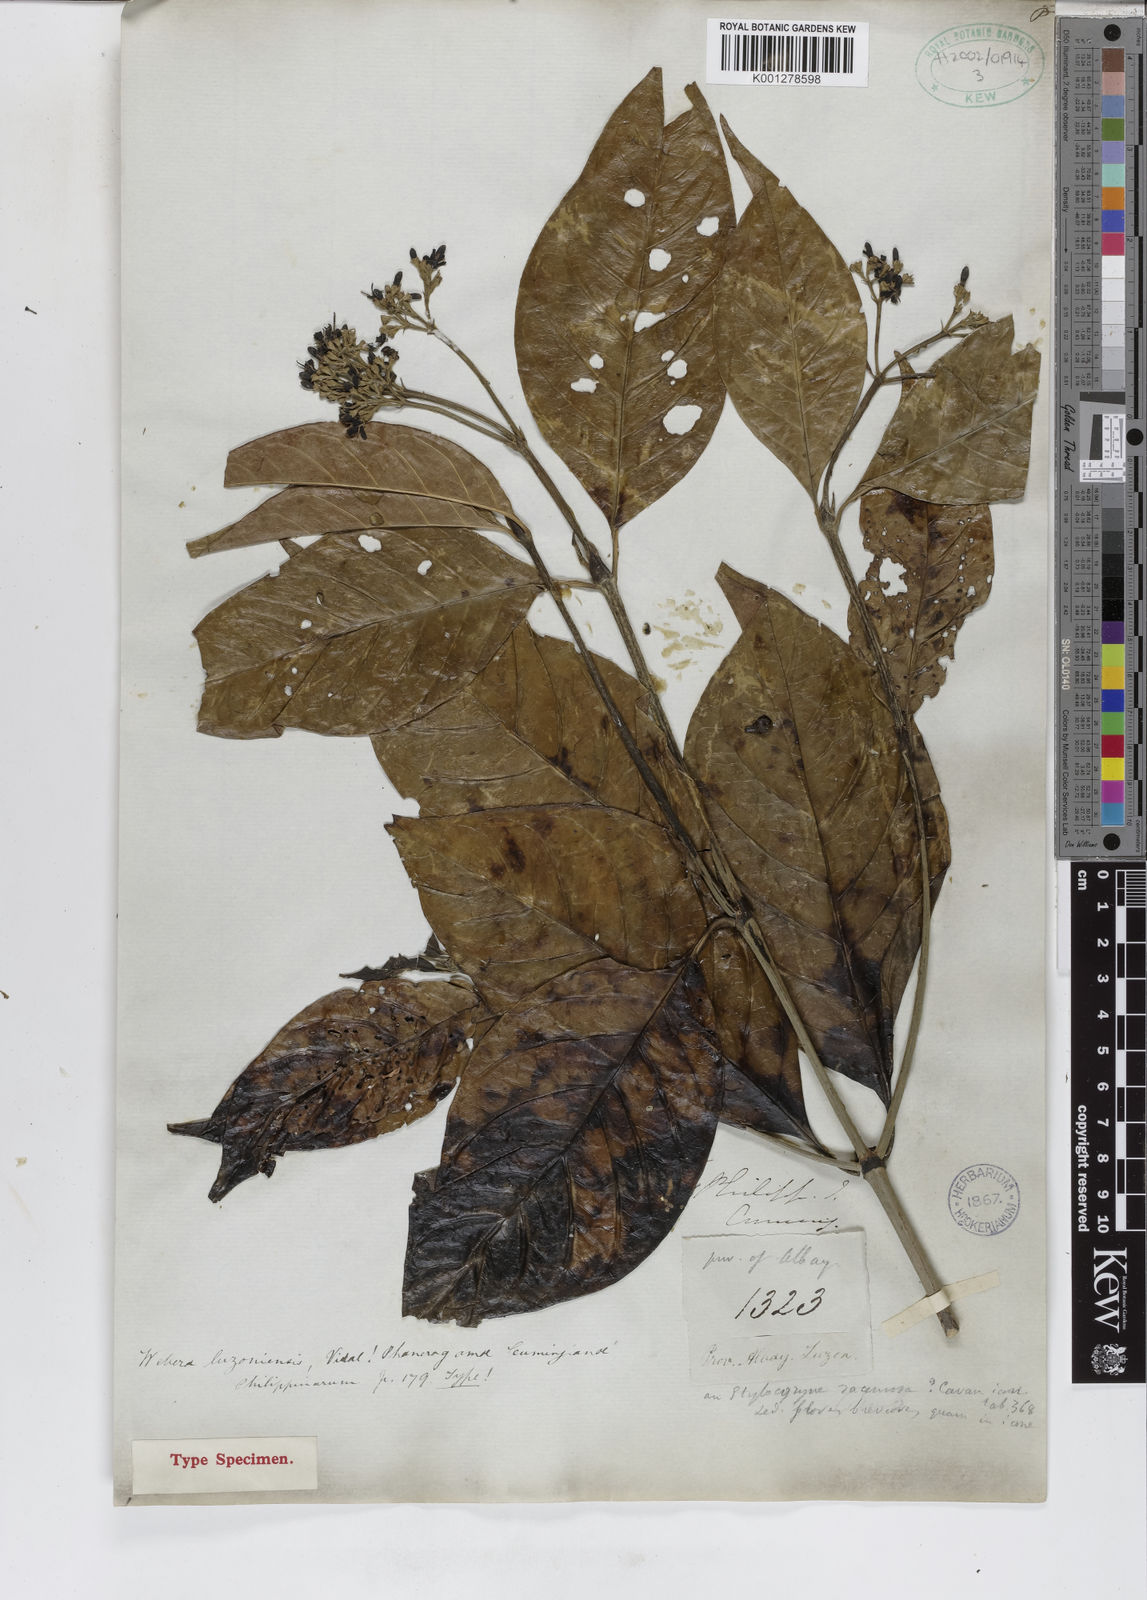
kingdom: Plantae
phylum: Tracheophyta
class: Magnoliopsida
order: Gentianales
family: Rubiaceae
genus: Tarenna
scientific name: Tarenna luzoniensis
